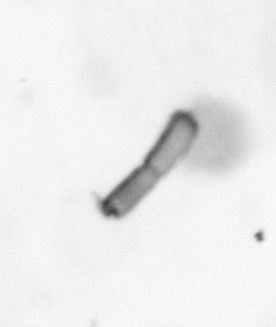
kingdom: Chromista
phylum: Ochrophyta
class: Bacillariophyceae
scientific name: Bacillariophyceae
